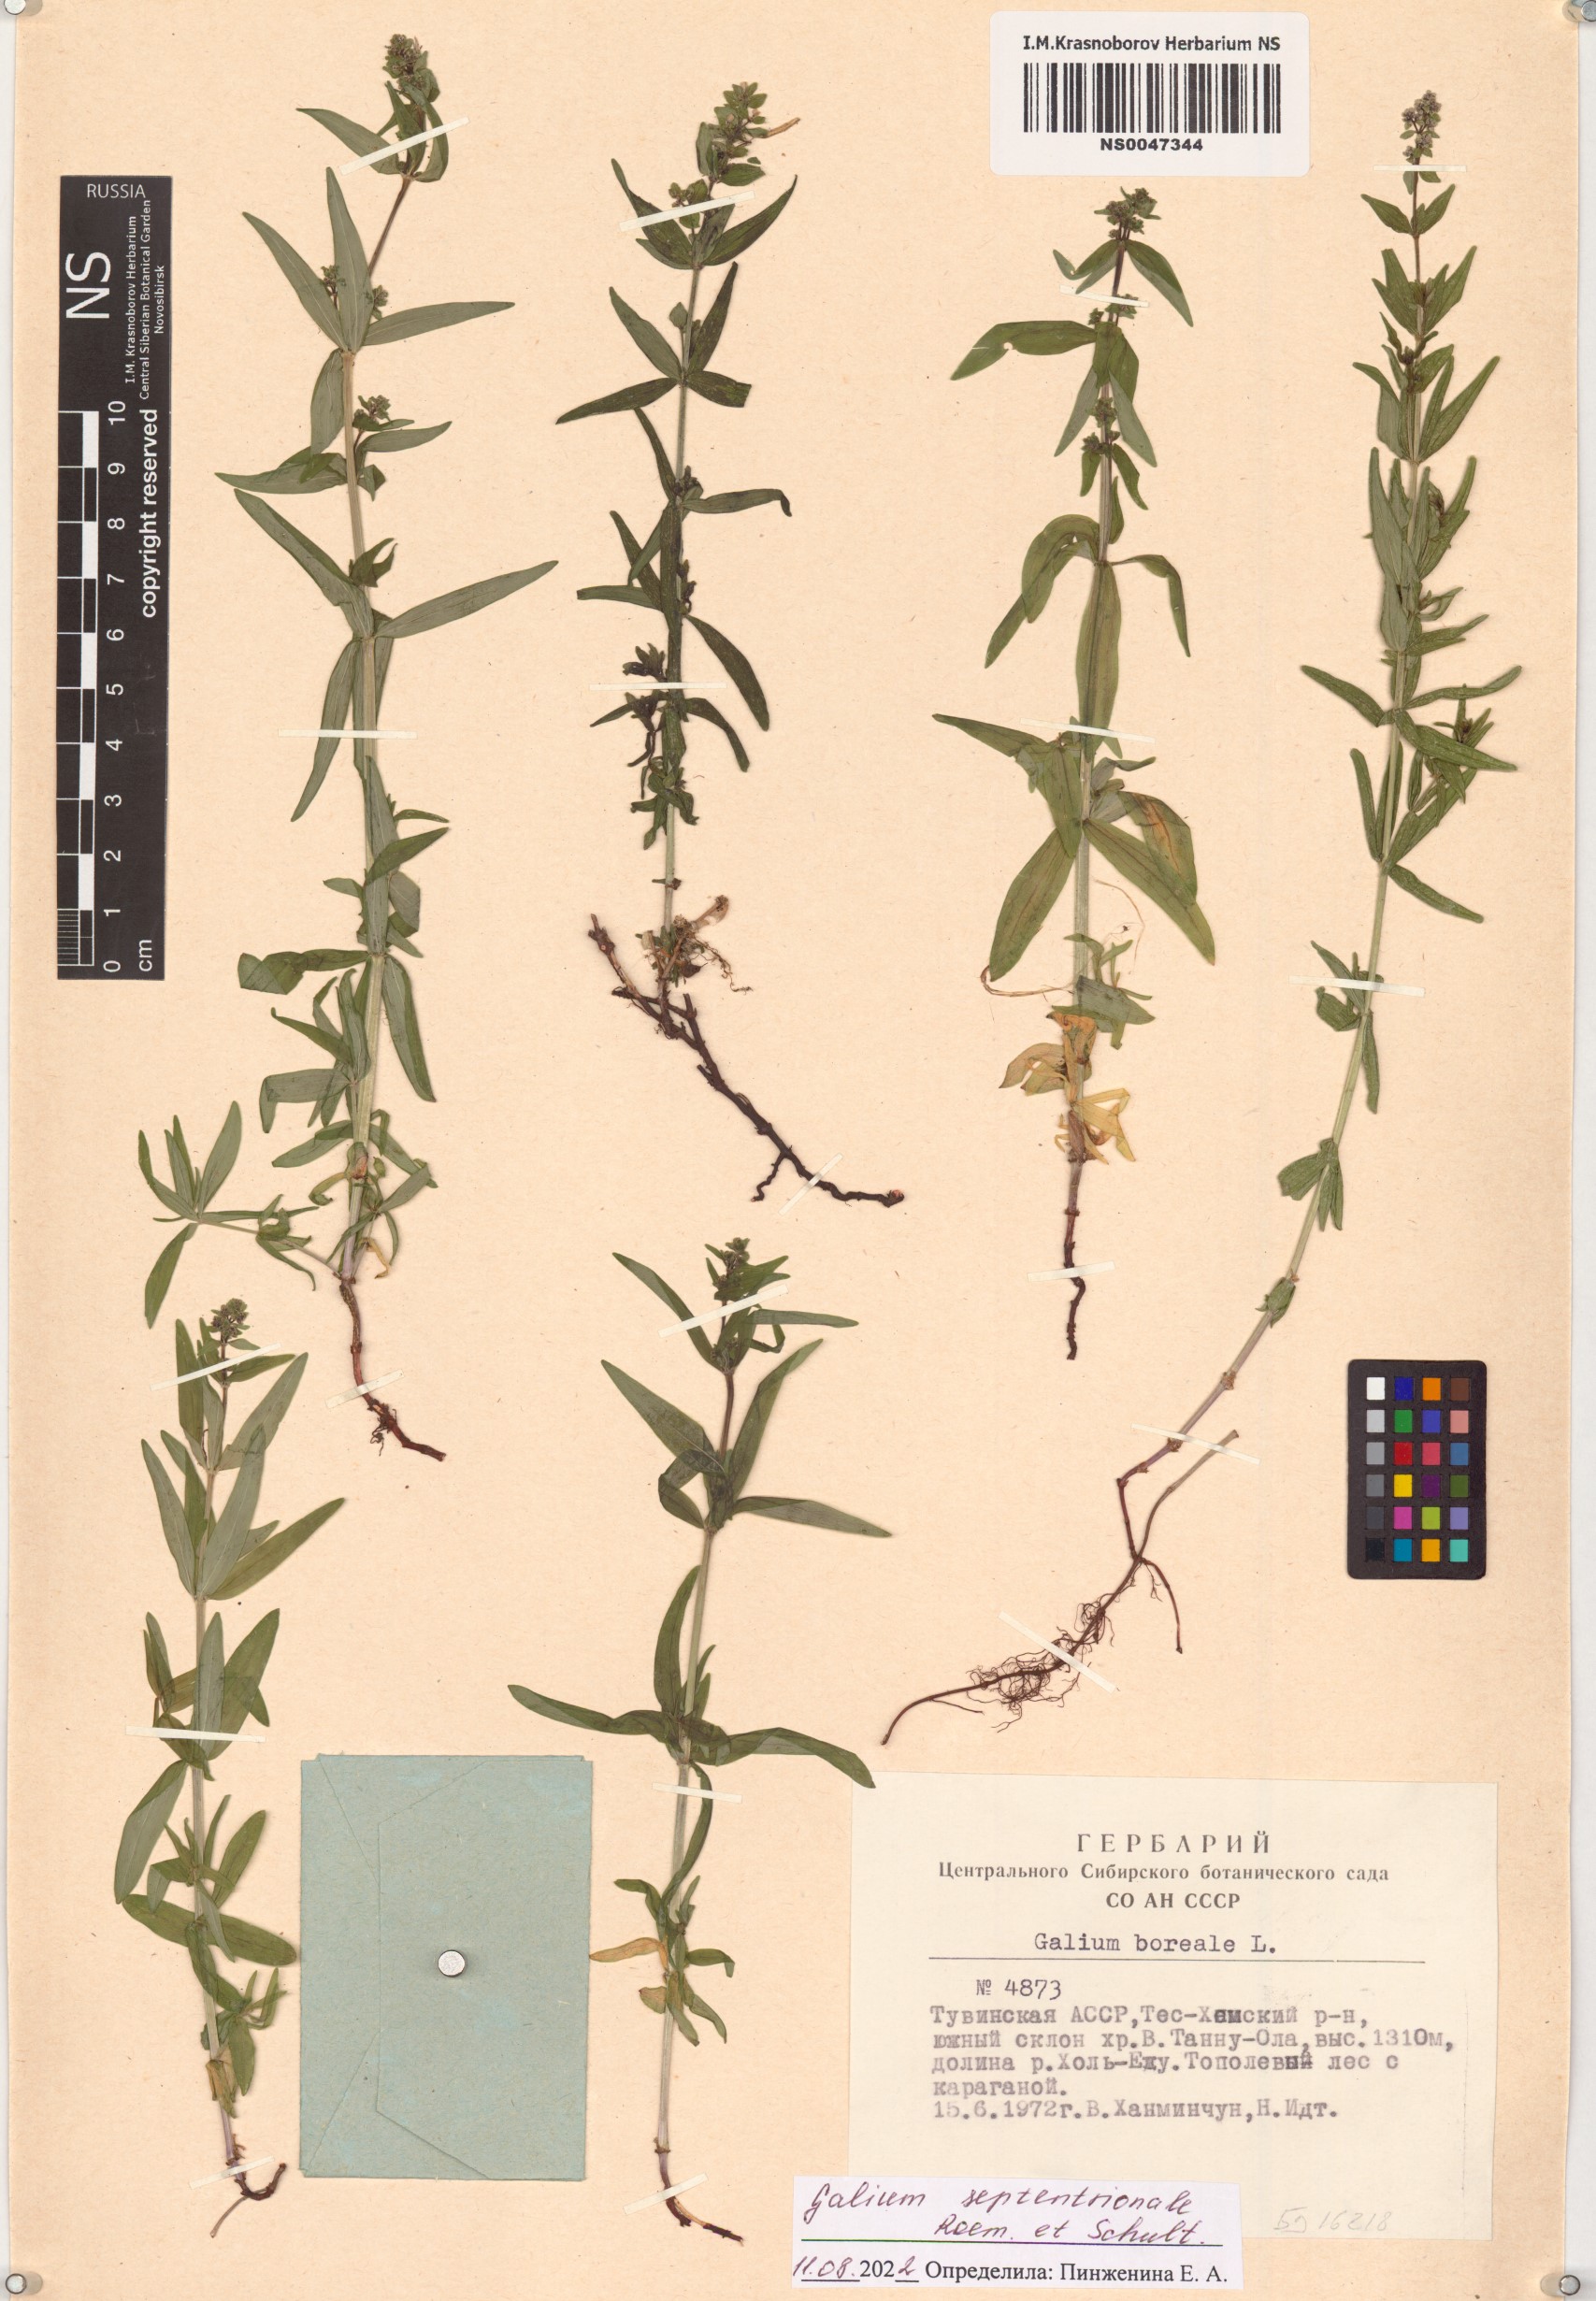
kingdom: Plantae
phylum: Tracheophyta
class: Magnoliopsida
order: Gentianales
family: Rubiaceae
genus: Galium
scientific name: Galium boreale
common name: Northern bedstraw
